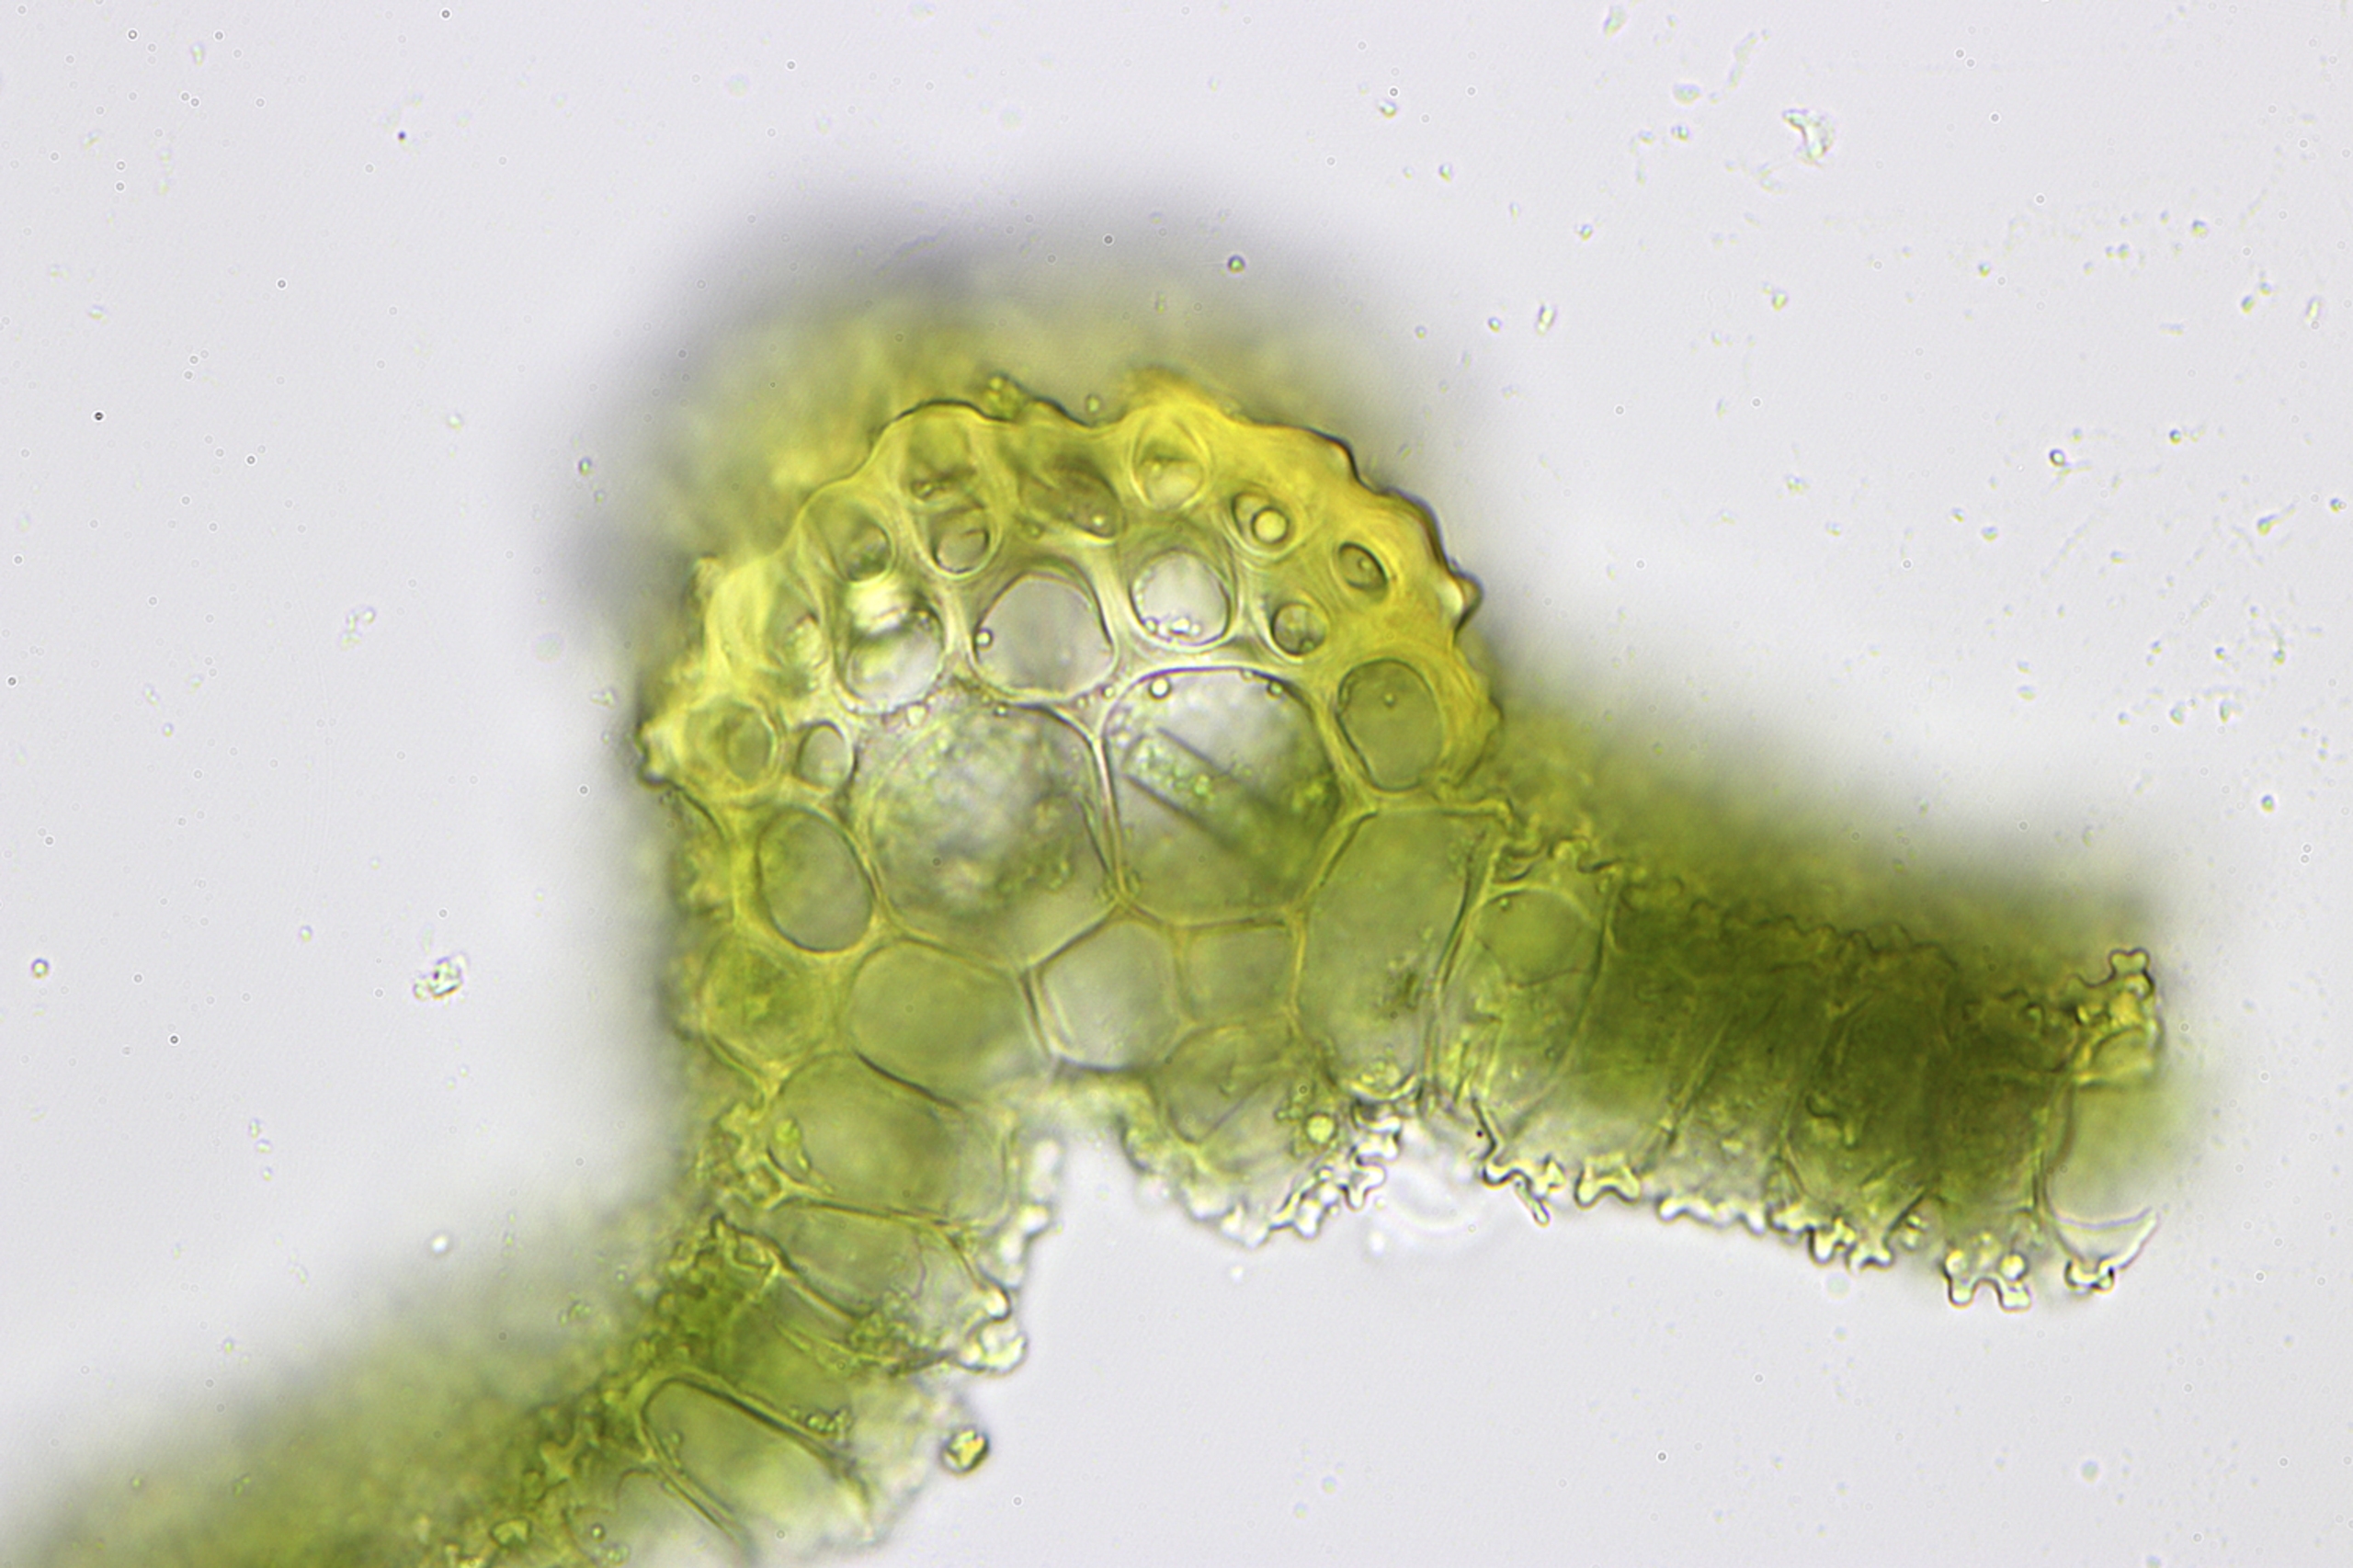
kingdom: Plantae
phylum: Bryophyta
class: Bryopsida
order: Pottiales
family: Pottiaceae
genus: Syntrichia
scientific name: Syntrichia virescens
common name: Grøn hårstjerne
